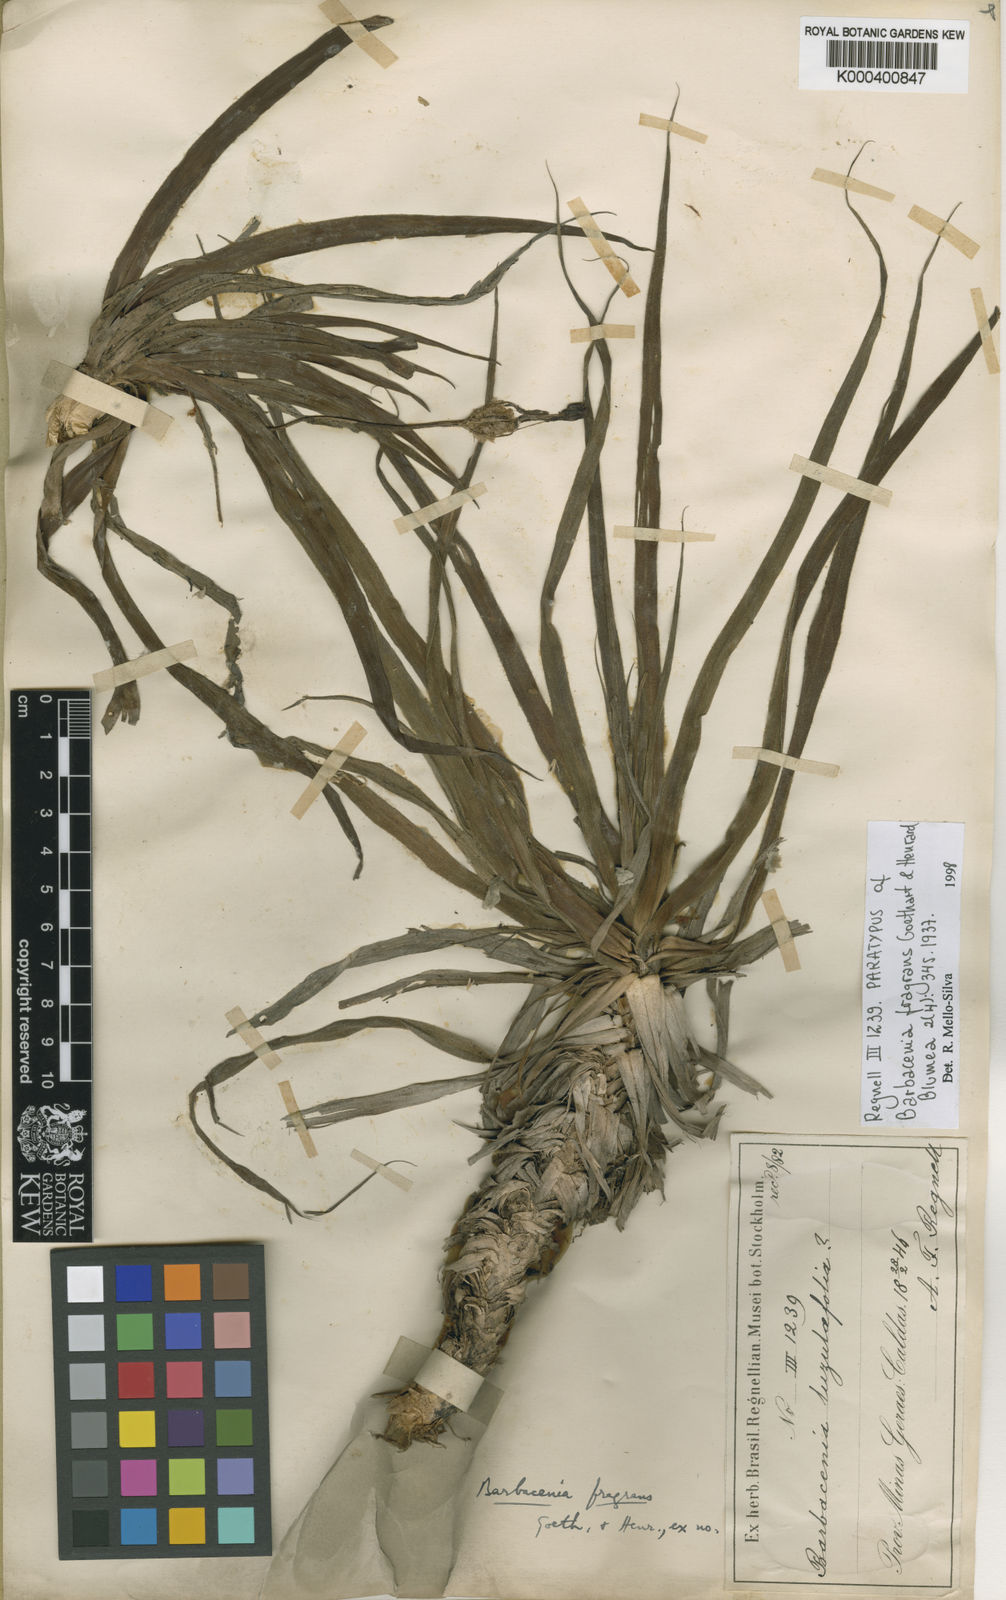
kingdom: Plantae
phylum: Tracheophyta
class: Liliopsida
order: Pandanales
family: Velloziaceae
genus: Barbacenia
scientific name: Barbacenia fragrans
